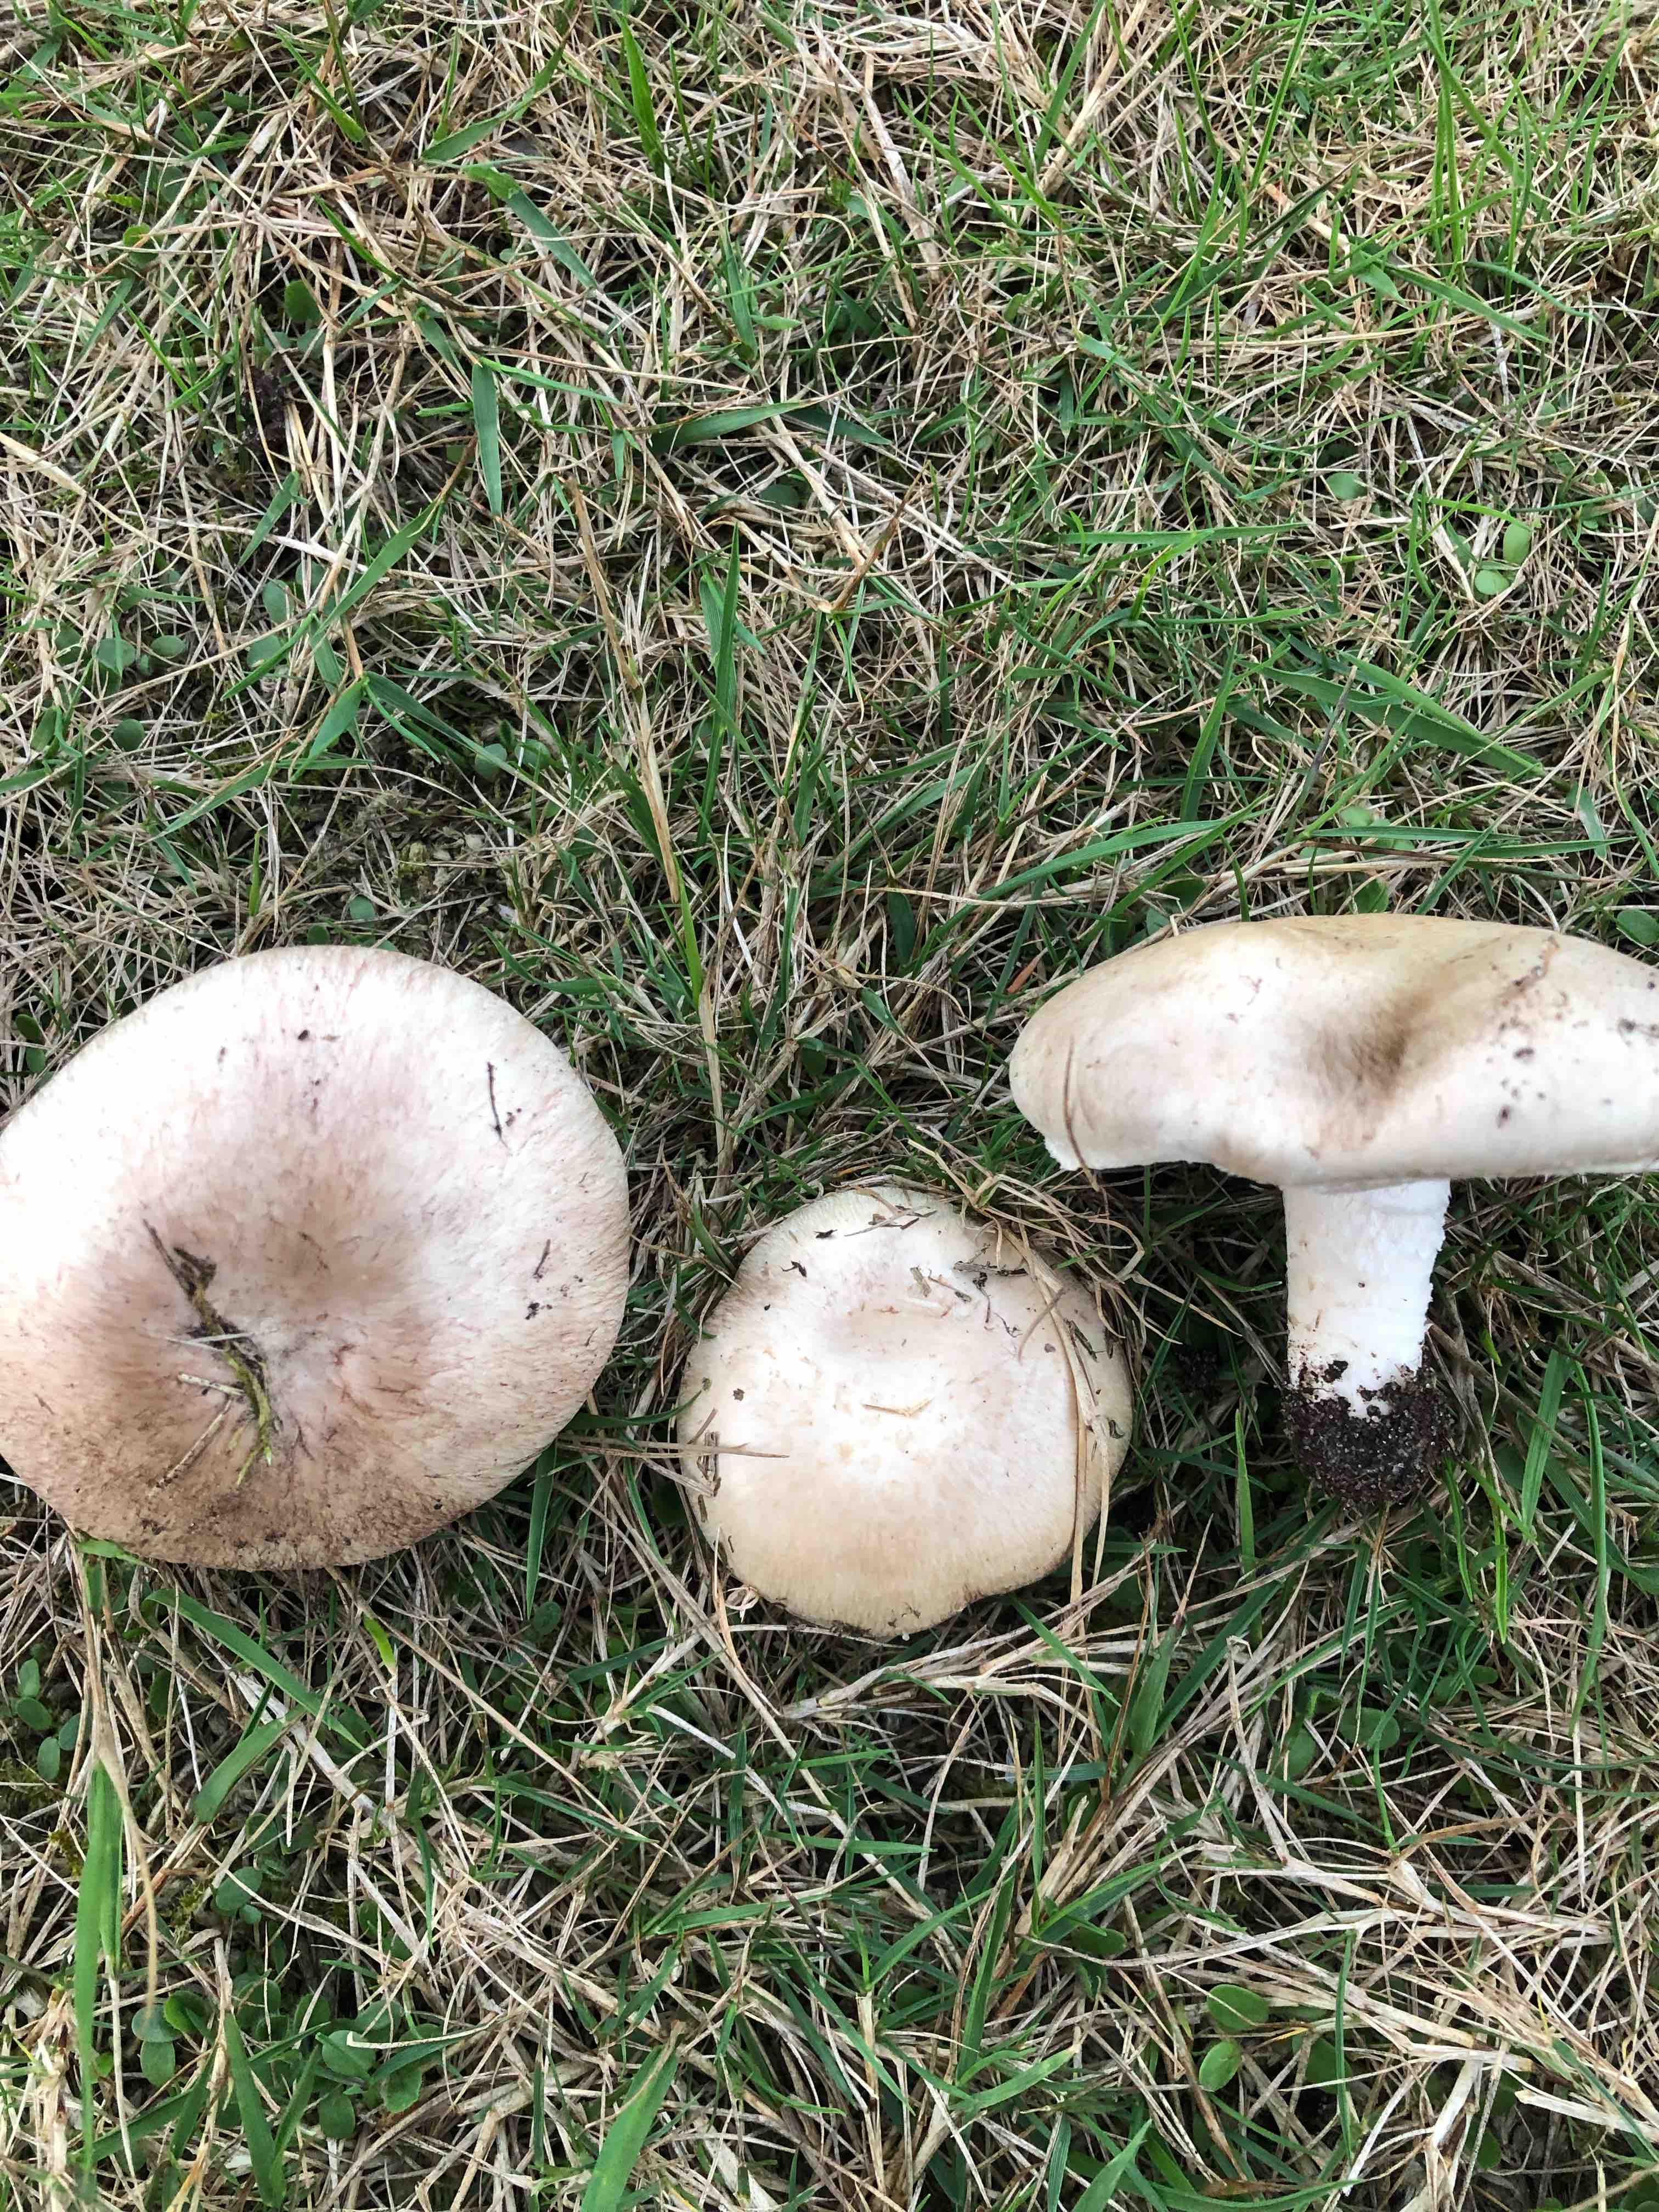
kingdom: Fungi
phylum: Basidiomycota
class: Agaricomycetes
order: Agaricales
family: Agaricaceae
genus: Agaricus
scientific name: Agaricus campestris
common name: mark-champignon
